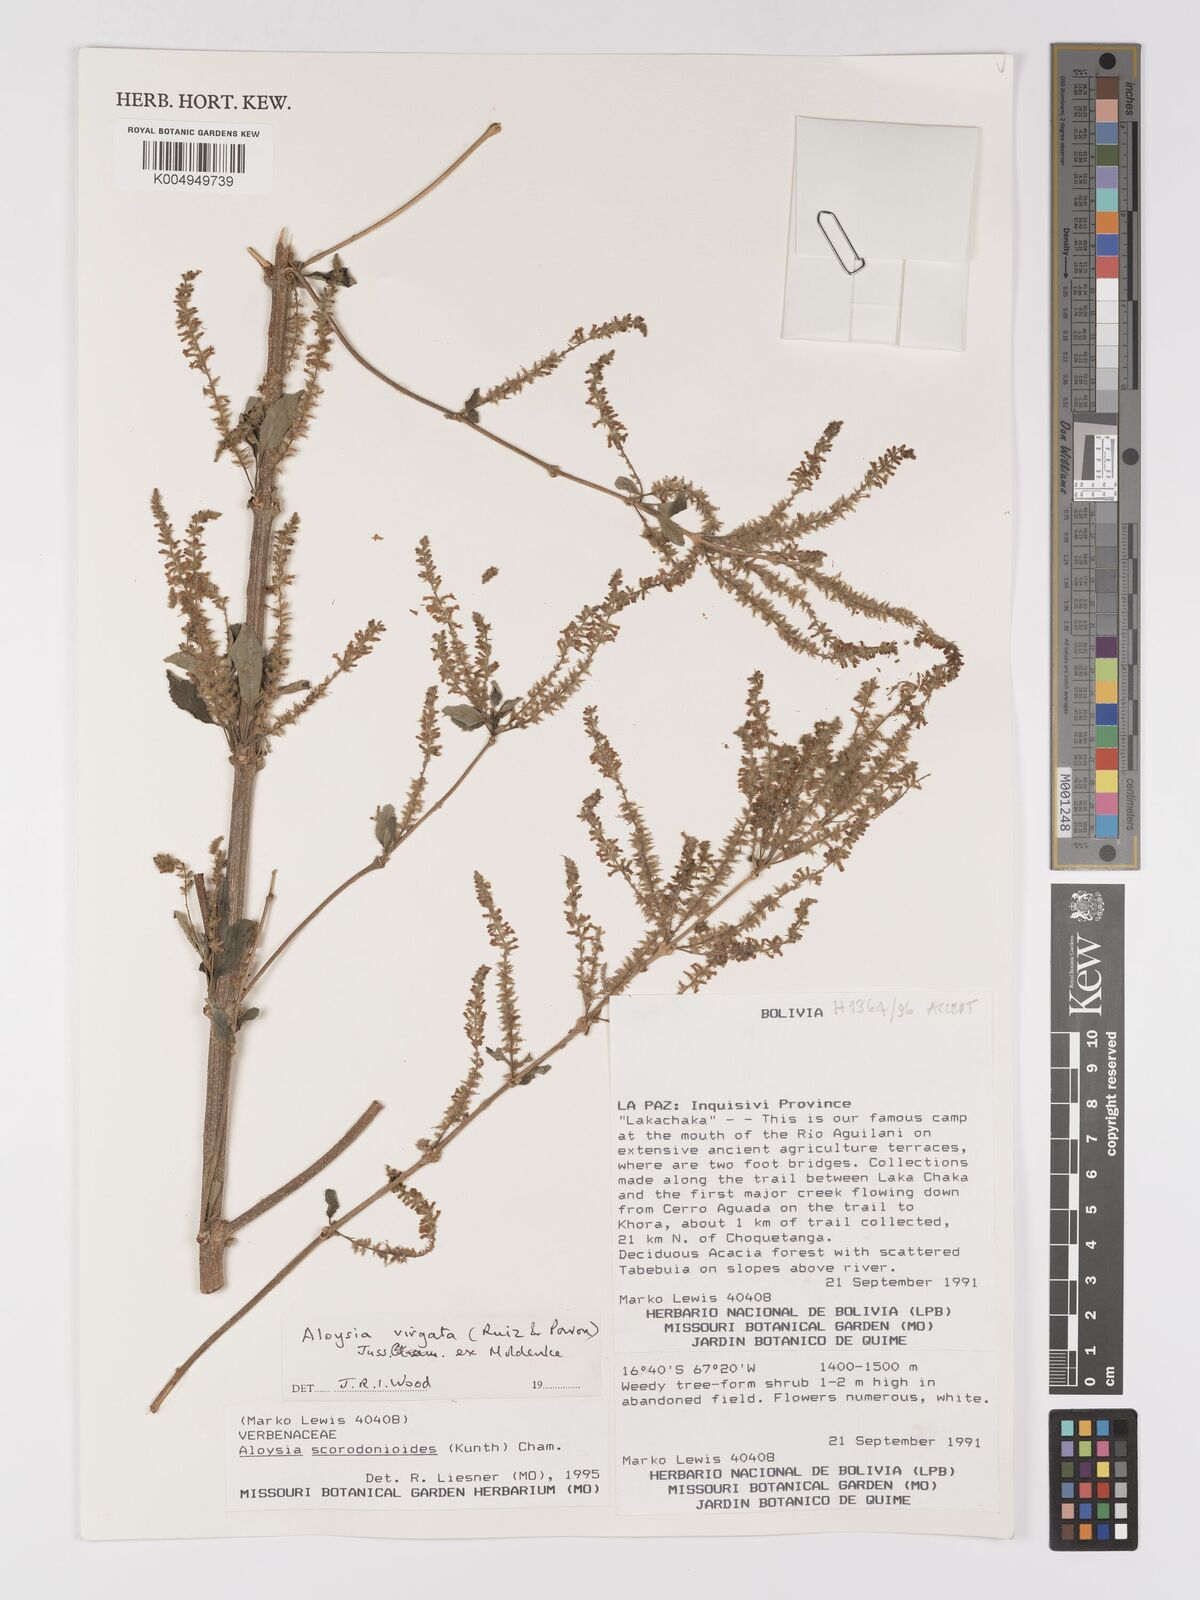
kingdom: Plantae
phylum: Tracheophyta
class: Magnoliopsida
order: Lamiales
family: Verbenaceae
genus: Aloysia
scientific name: Aloysia virgata
